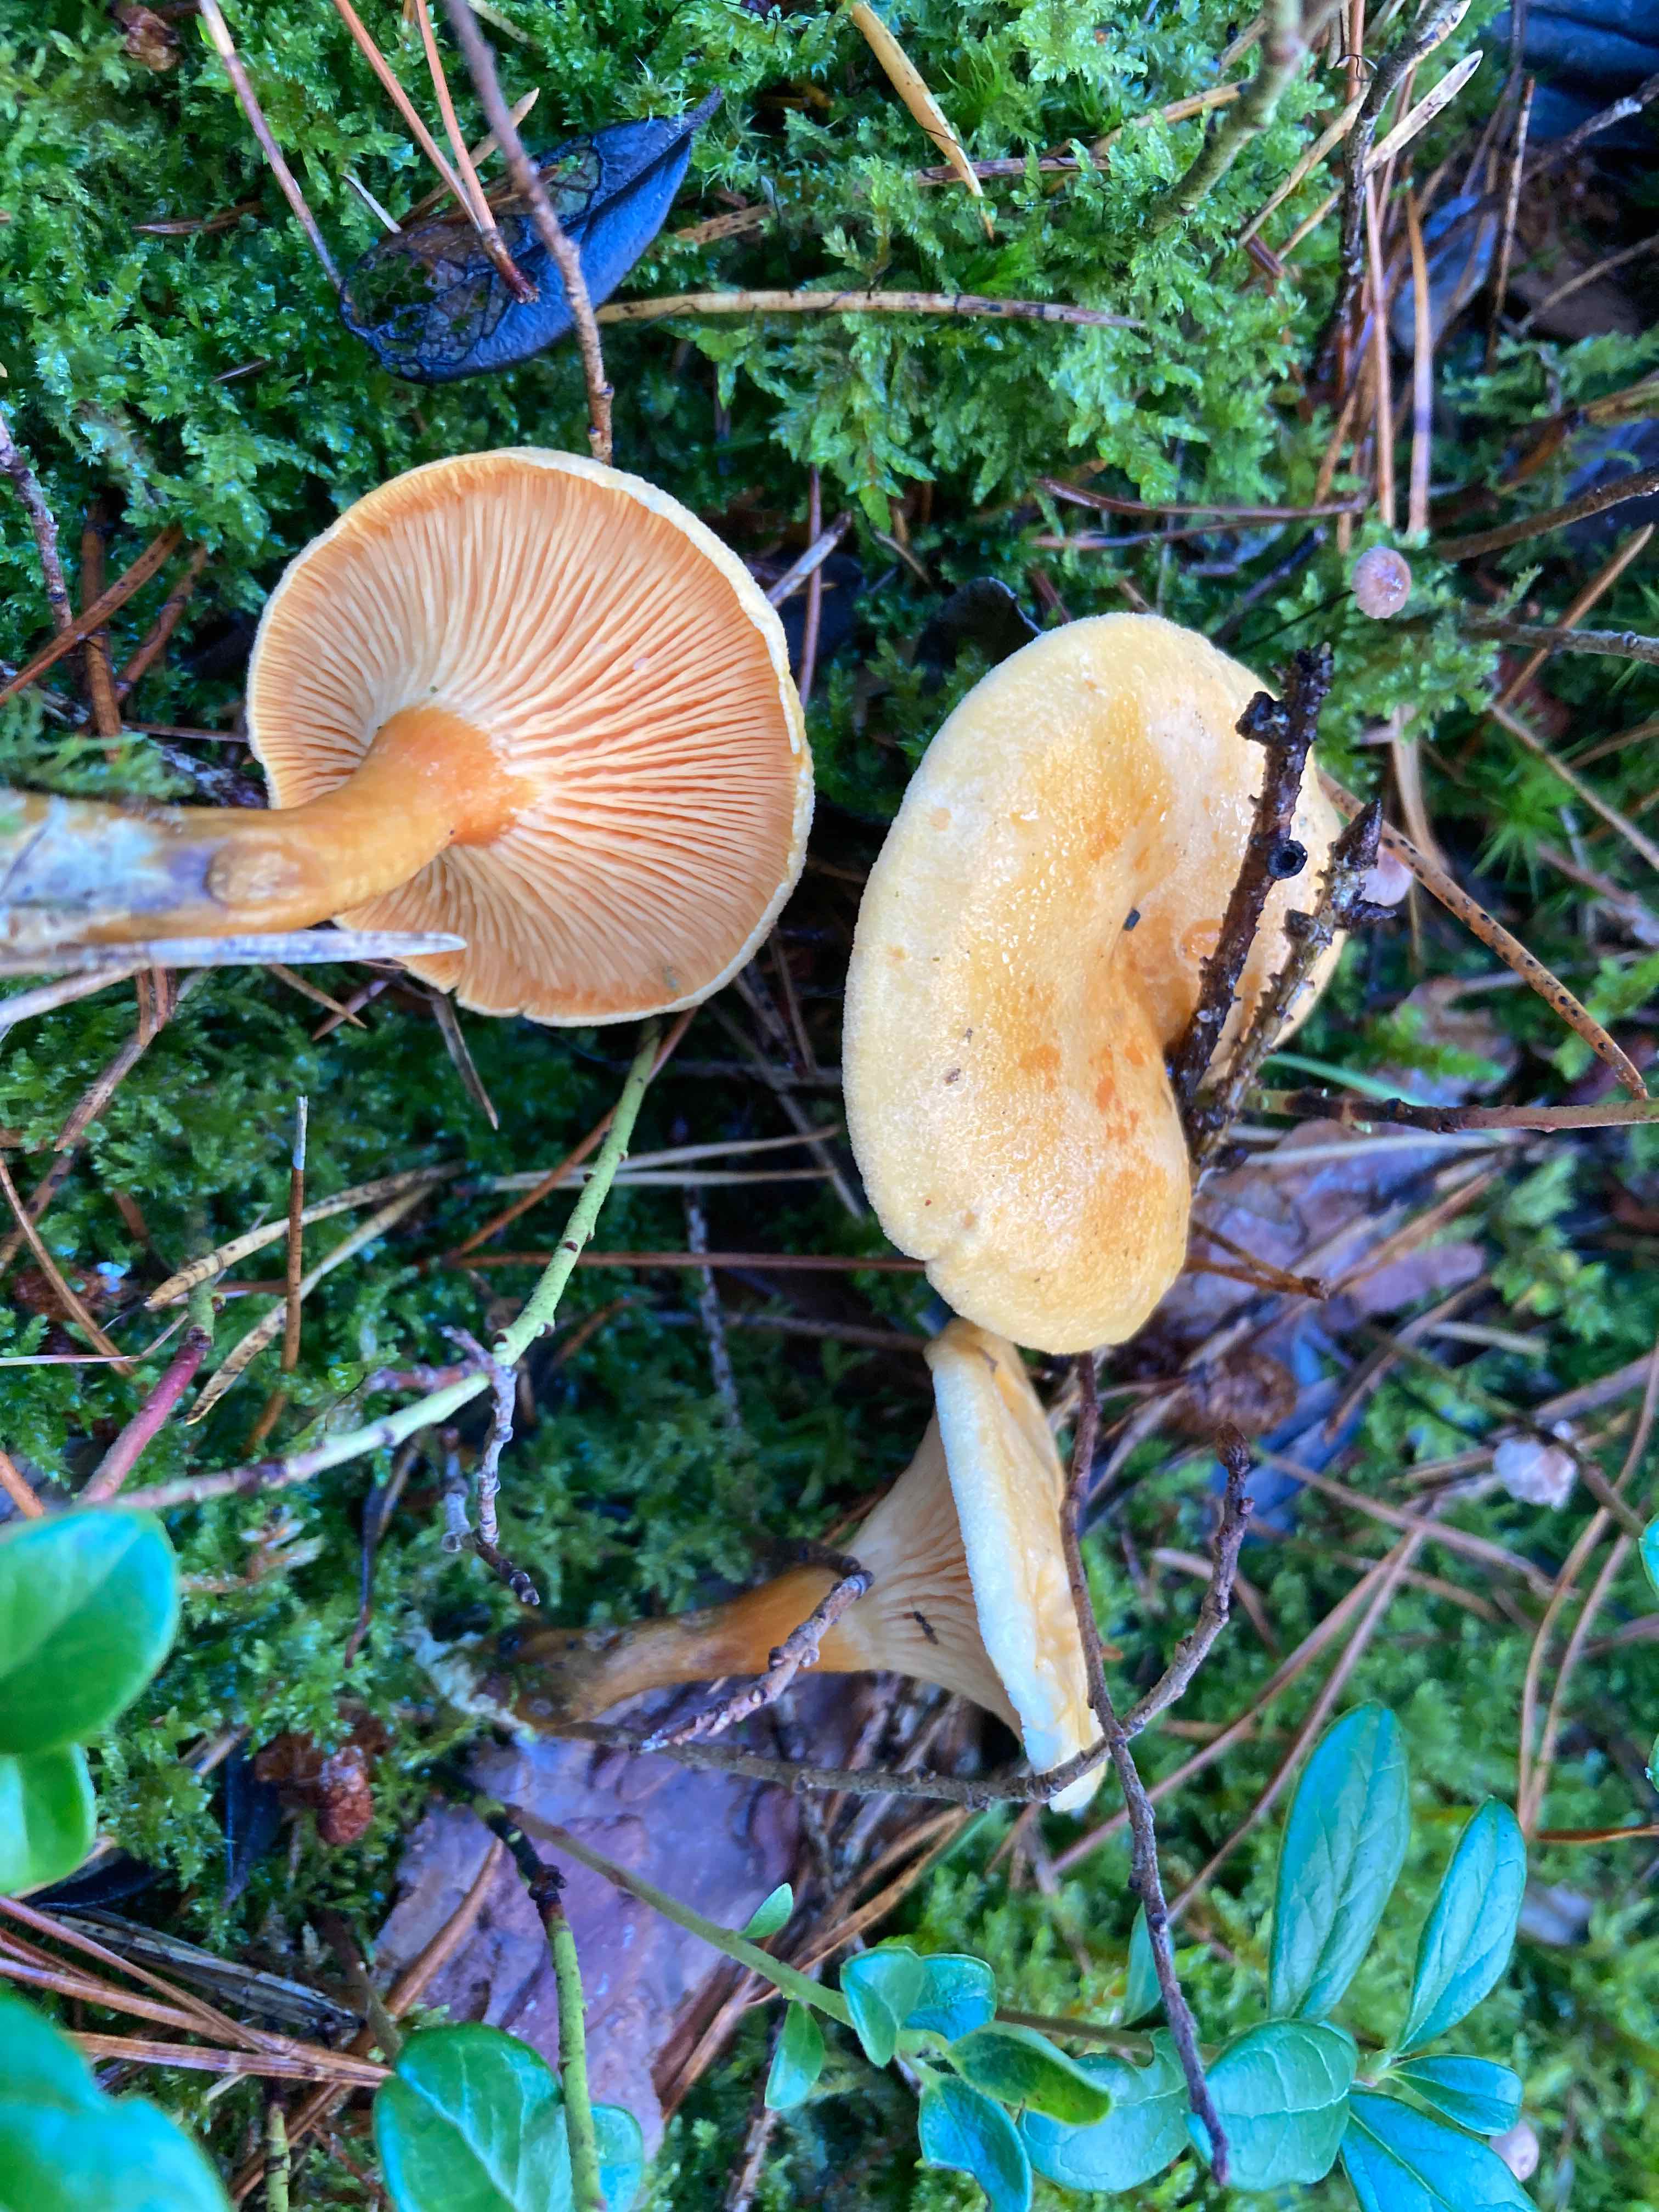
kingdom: Fungi
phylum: Basidiomycota
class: Agaricomycetes
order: Boletales
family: Hygrophoropsidaceae
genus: Hygrophoropsis
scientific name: Hygrophoropsis aurantiaca
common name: almindelig orangekantarel
